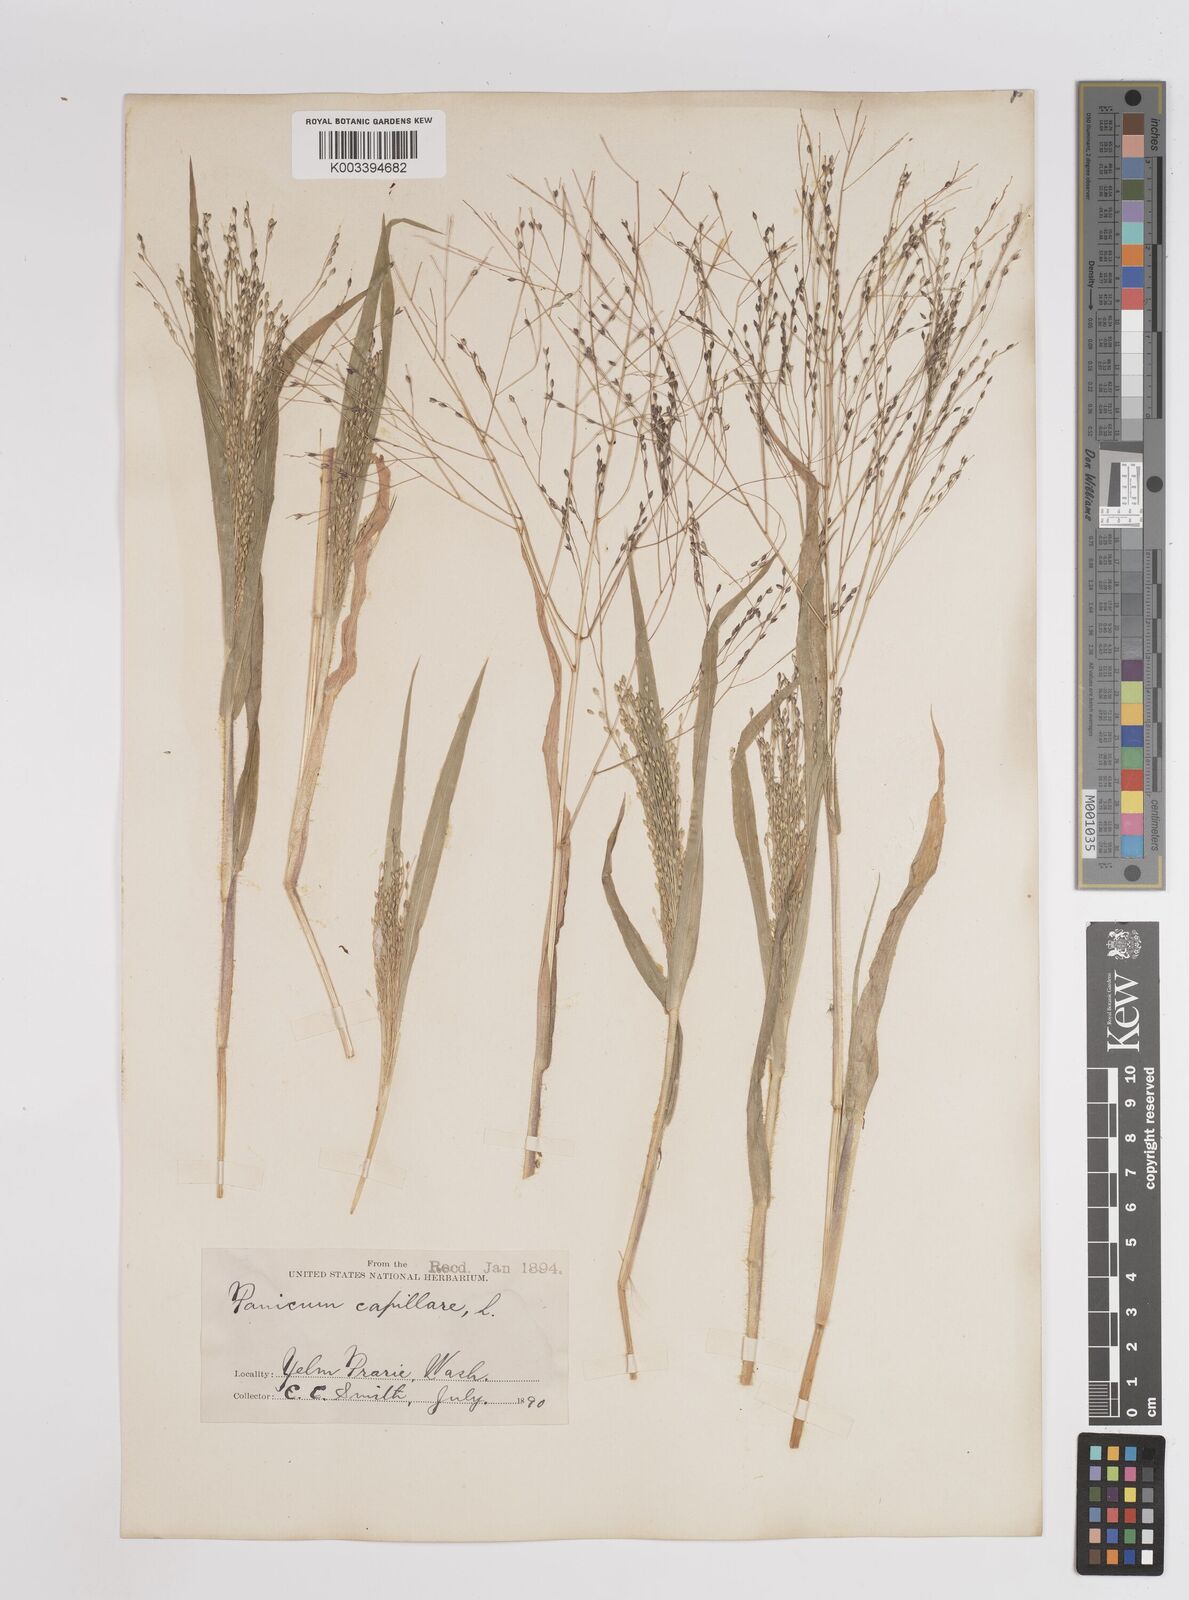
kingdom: Plantae
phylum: Tracheophyta
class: Liliopsida
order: Poales
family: Poaceae
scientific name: Poaceae
